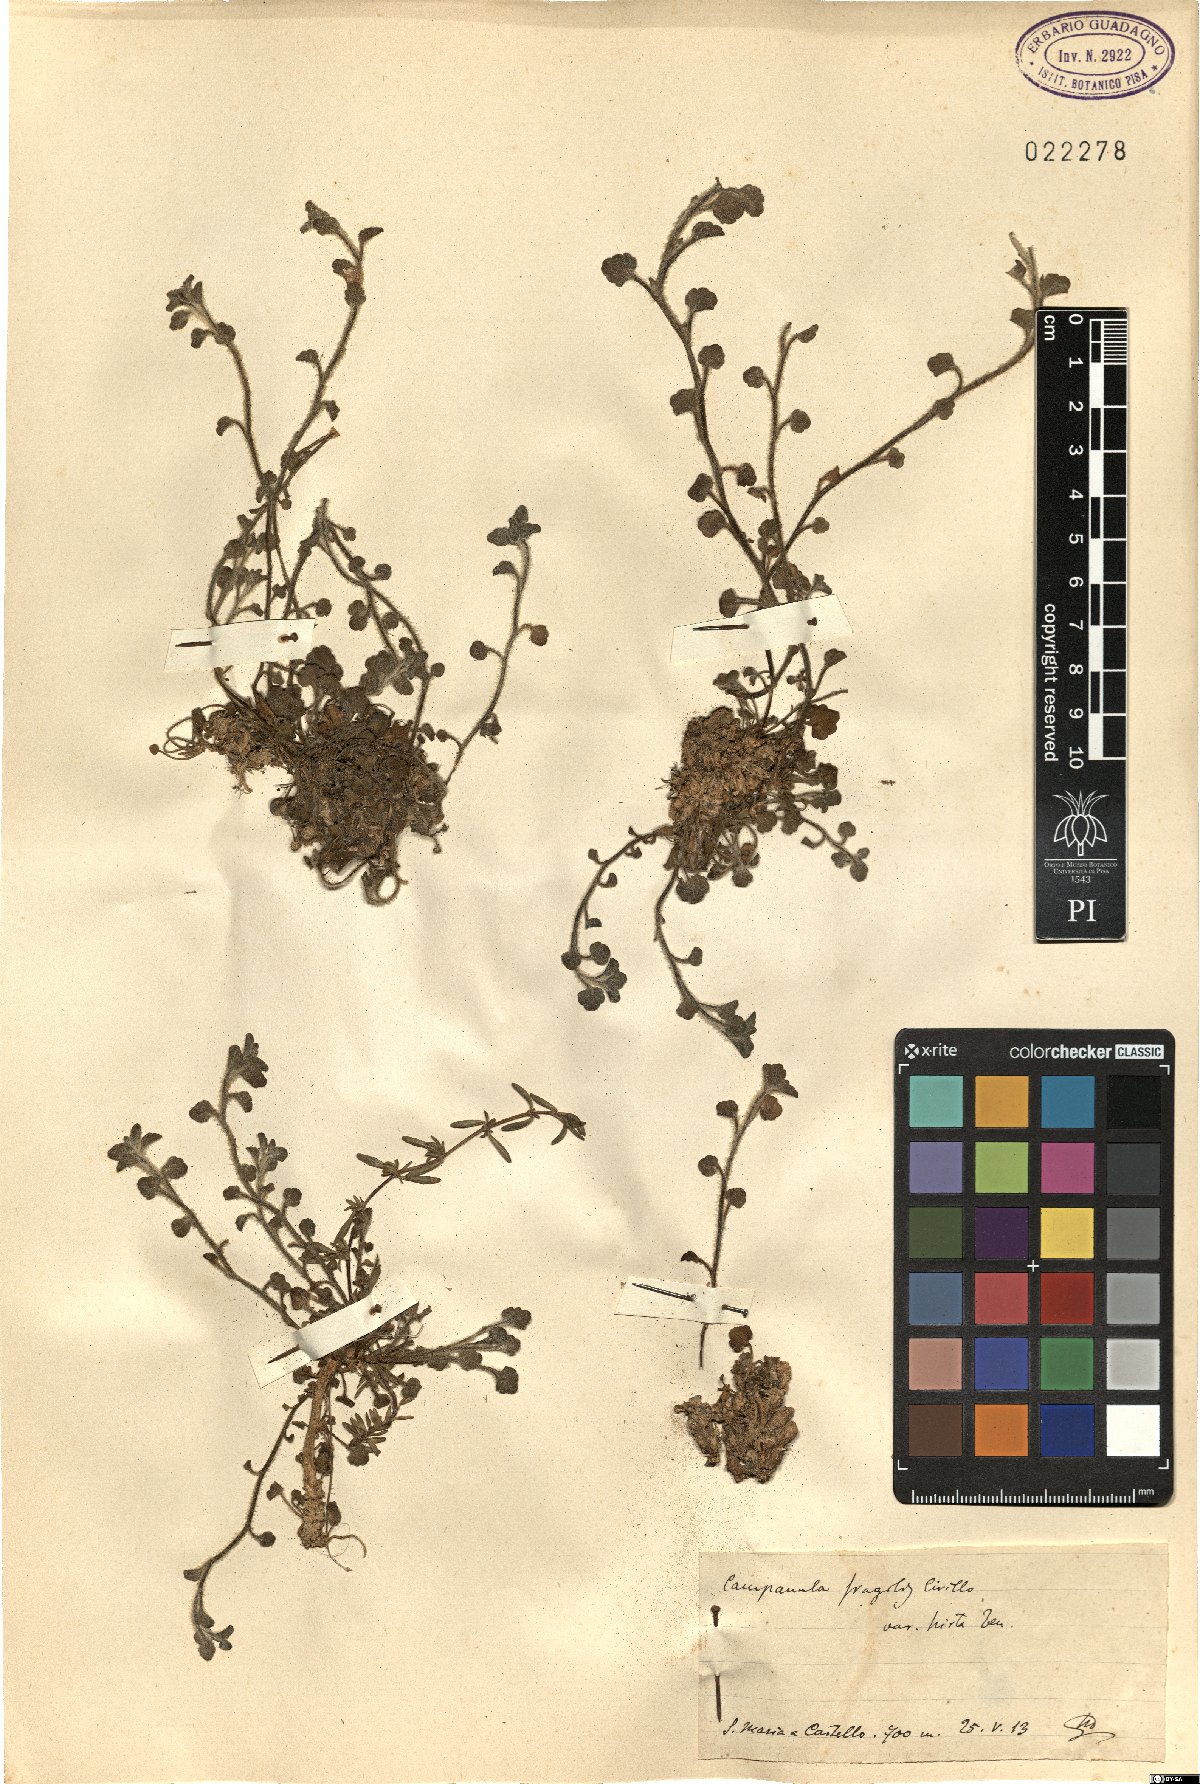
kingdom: Plantae
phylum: Tracheophyta
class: Magnoliopsida
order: Asterales
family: Campanulaceae
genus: Campanula
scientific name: Campanula fragilis
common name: Italian bellflower
